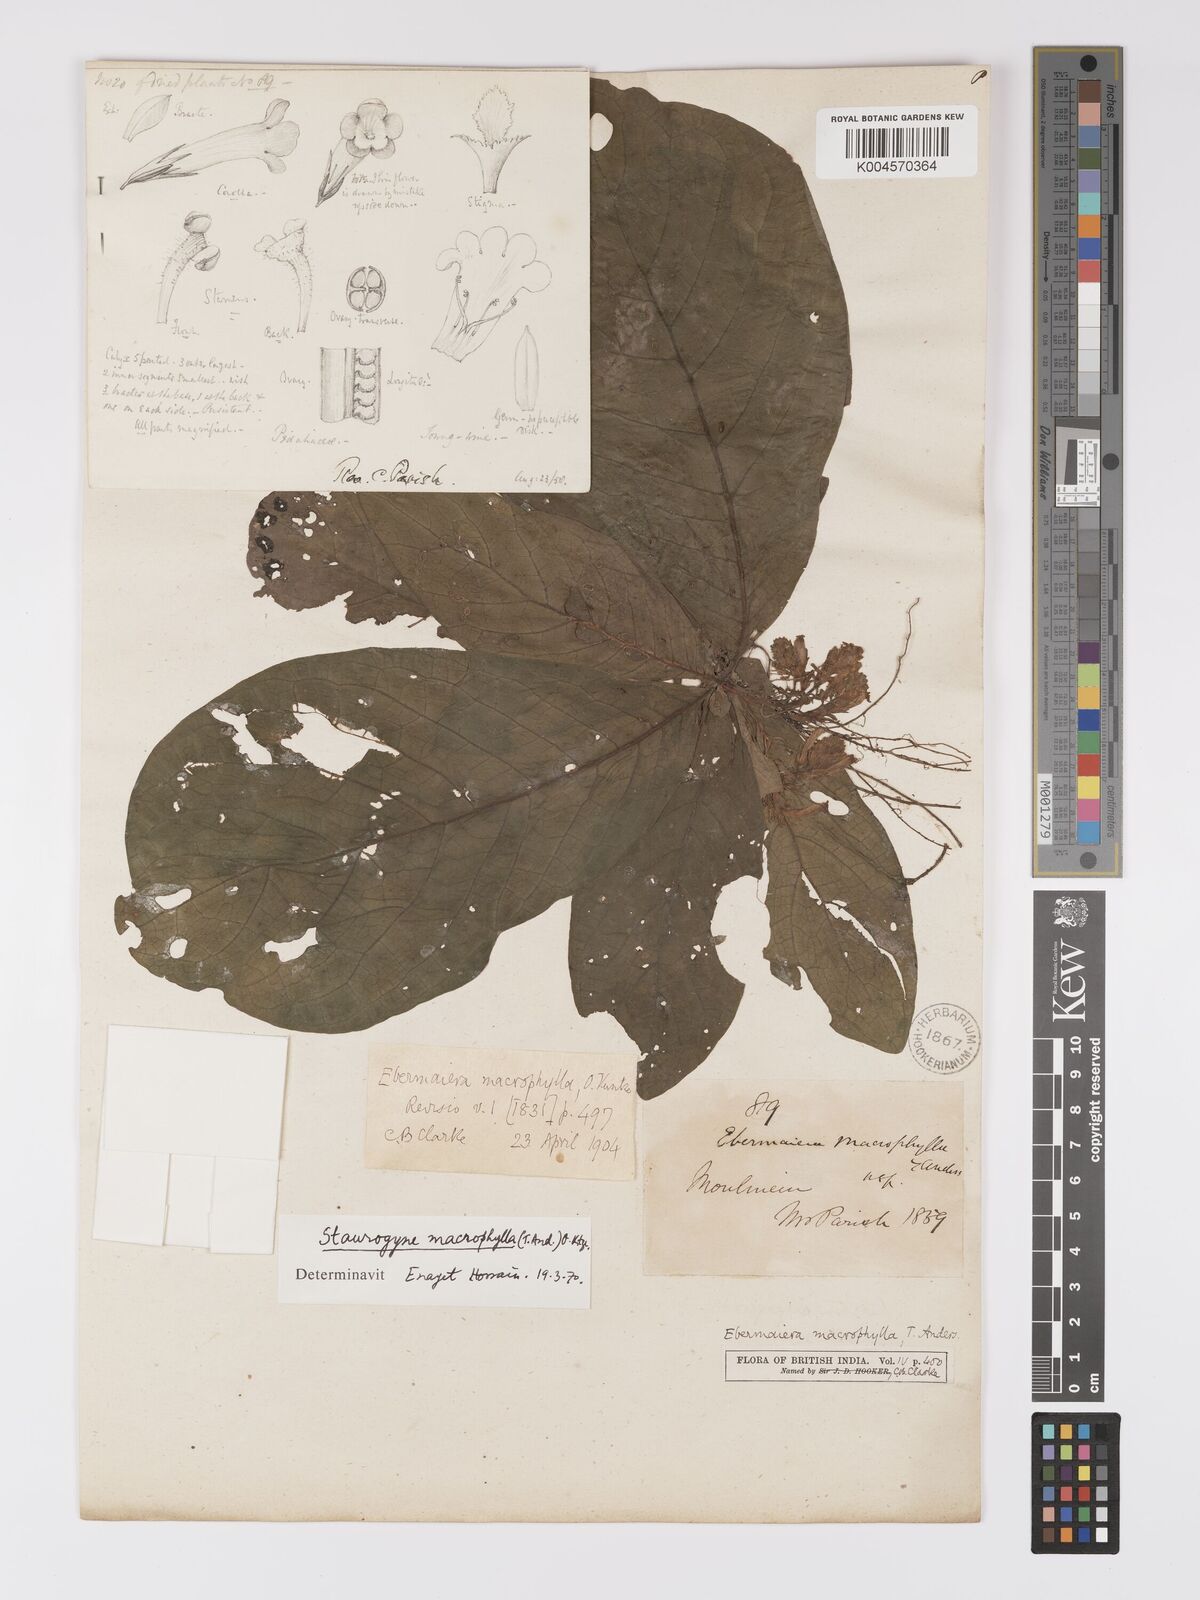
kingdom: Plantae
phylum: Tracheophyta
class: Magnoliopsida
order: Lamiales
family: Acanthaceae
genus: Staurogyne
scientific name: Staurogyne macrophylla
